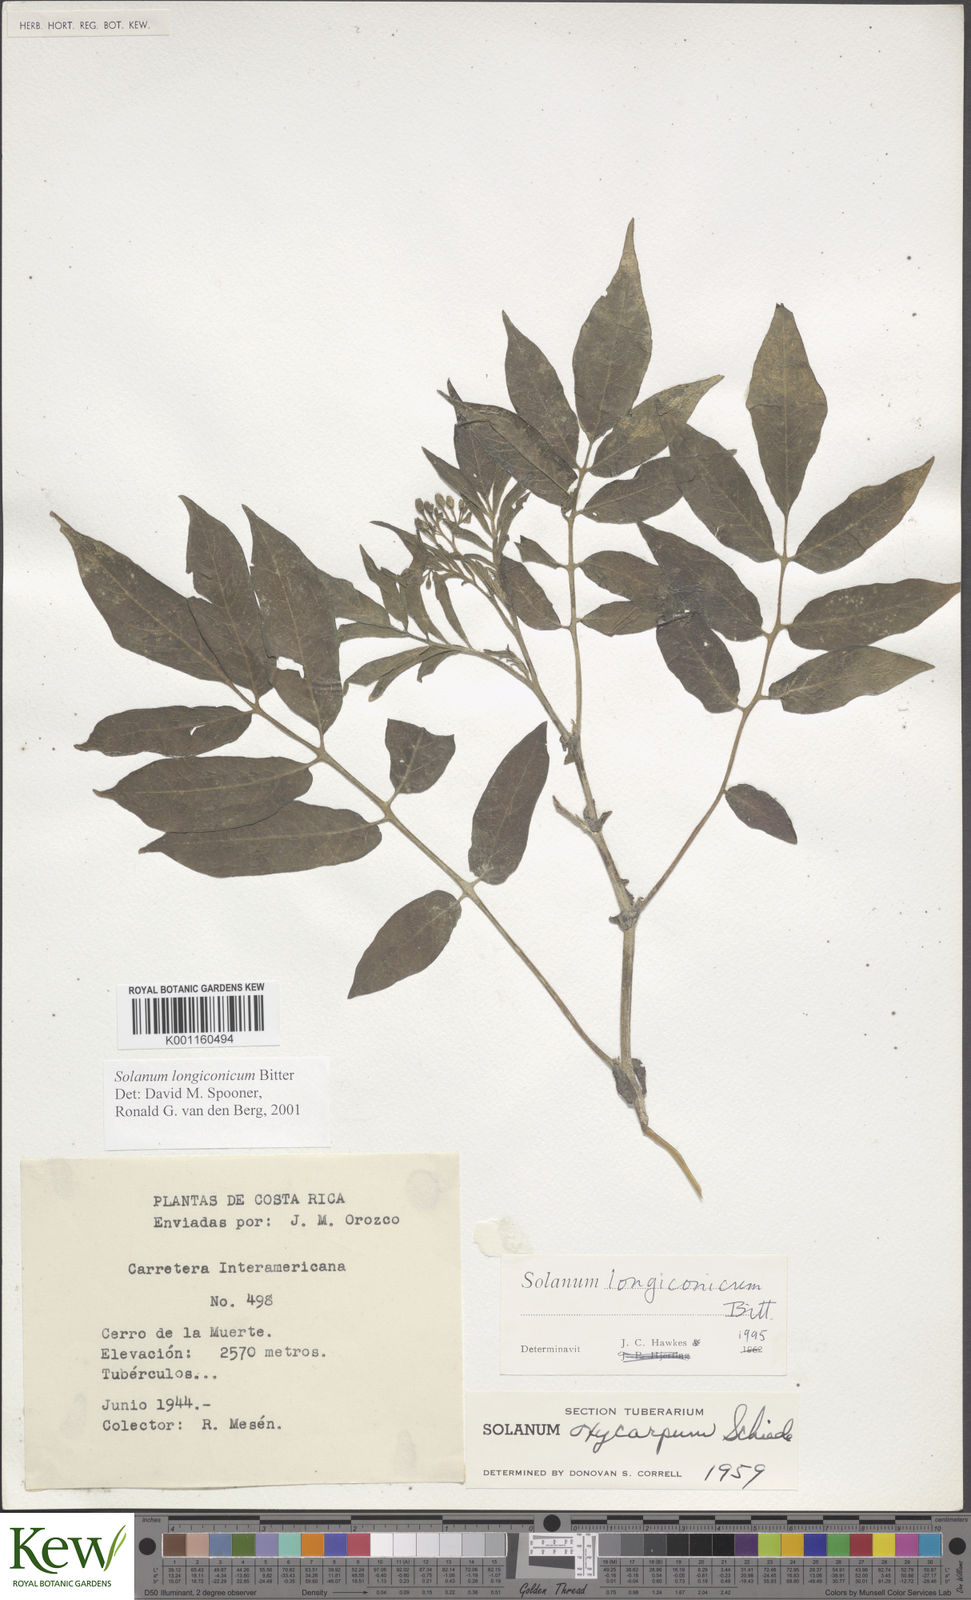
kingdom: Plantae
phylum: Tracheophyta
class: Magnoliopsida
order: Solanales
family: Solanaceae
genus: Solanum
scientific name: Solanum longiconicum
